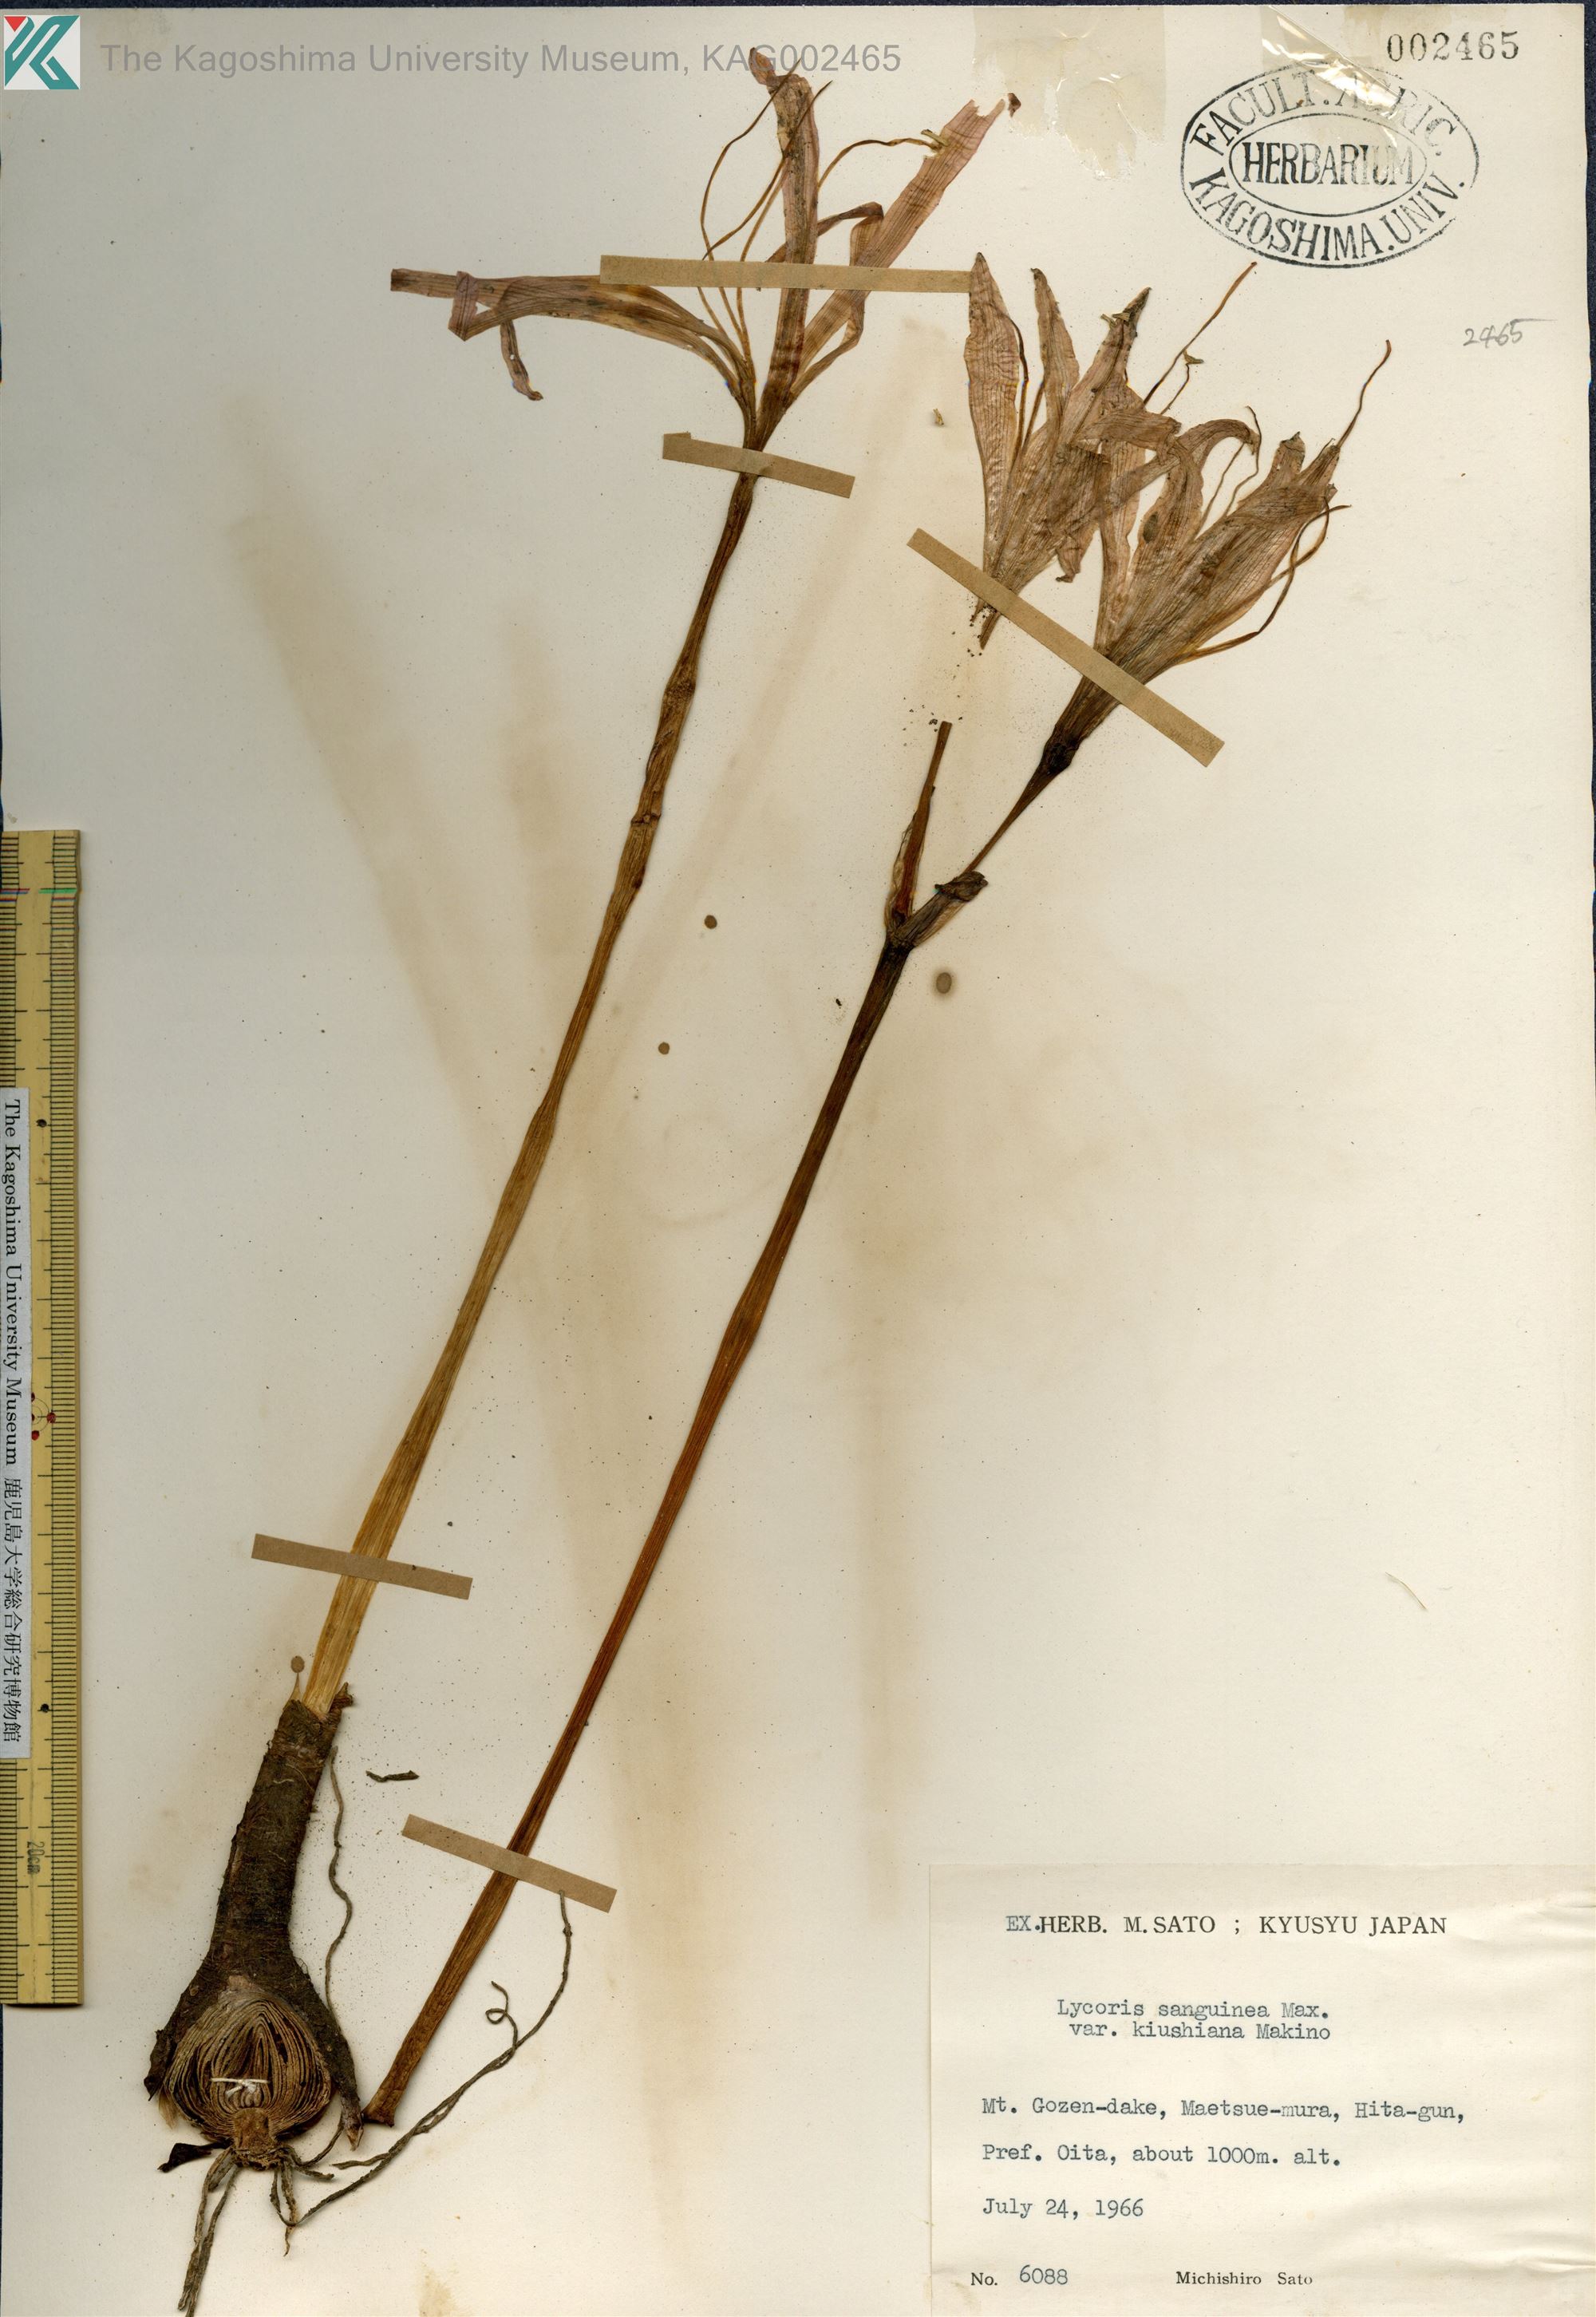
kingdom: Plantae
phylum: Tracheophyta
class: Liliopsida
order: Asparagales
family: Amaryllidaceae
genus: Lycoris
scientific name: Lycoris sanguinea
